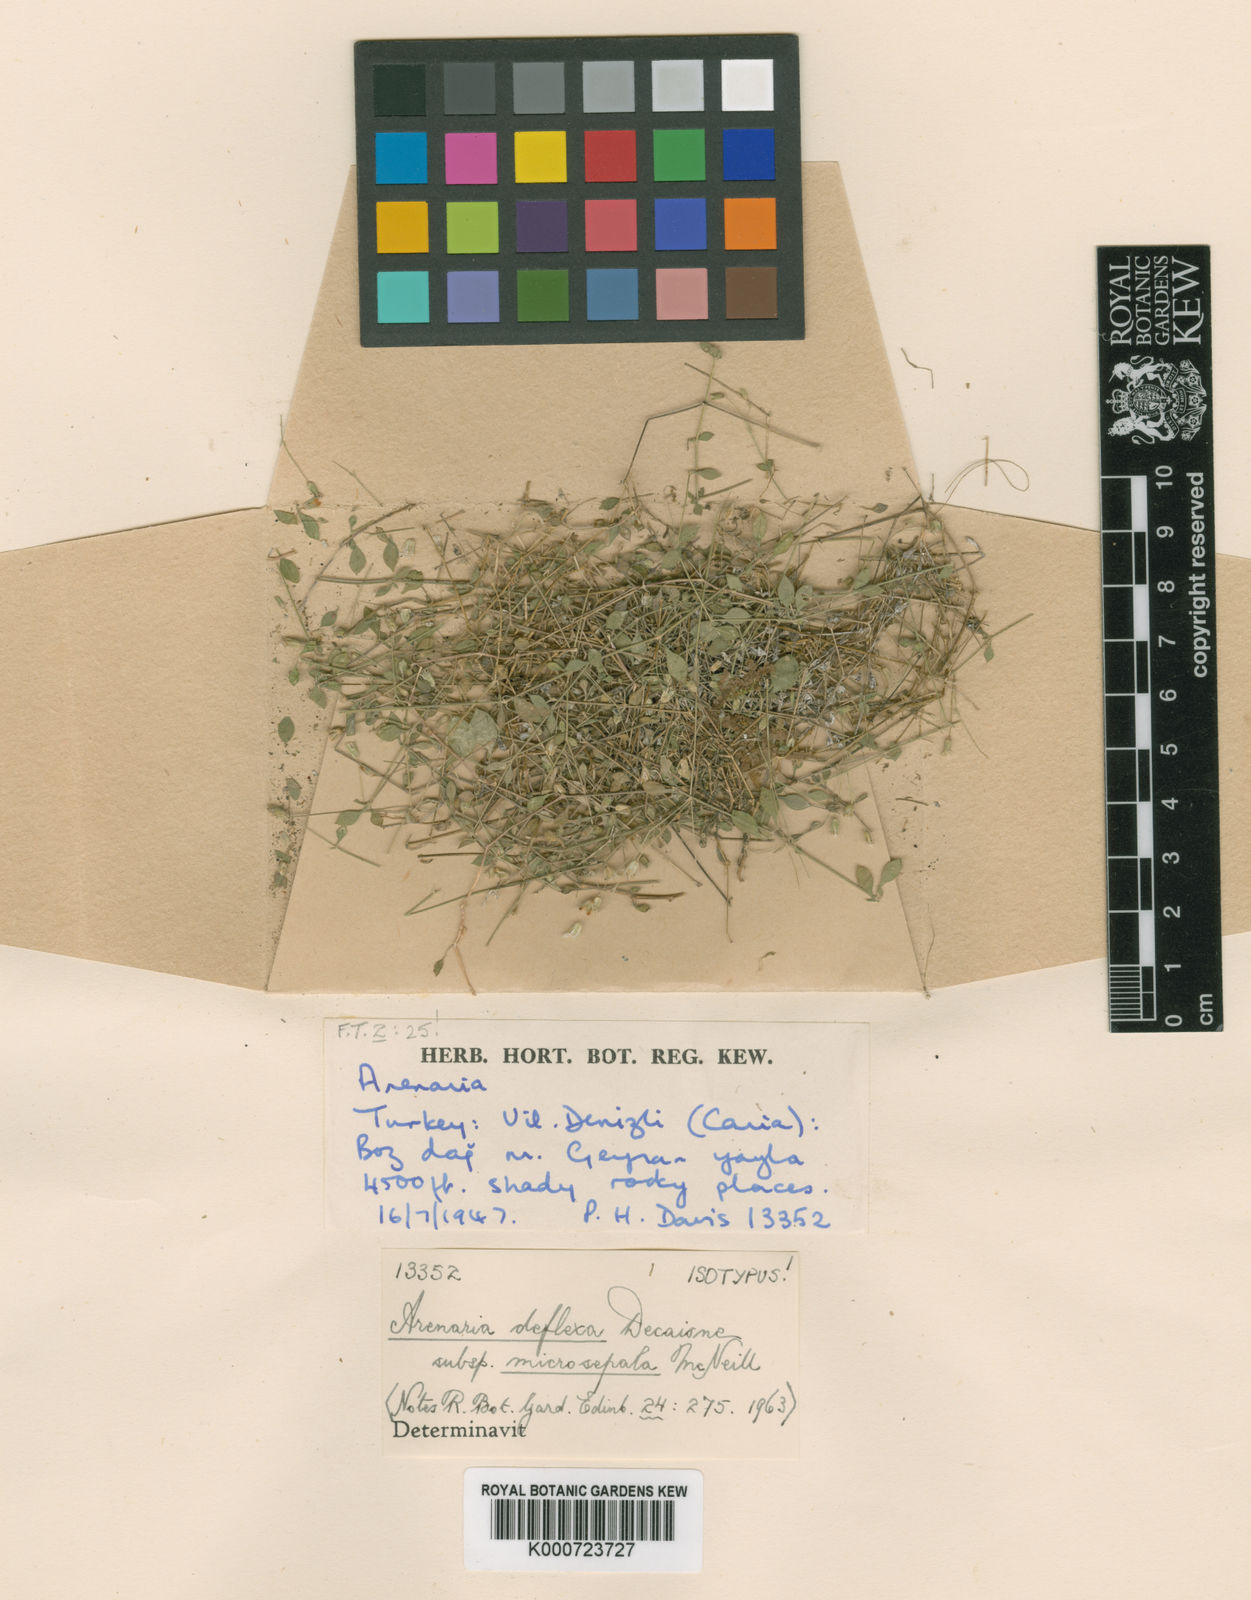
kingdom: Plantae
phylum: Tracheophyta
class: Magnoliopsida
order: Caryophyllales
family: Caryophyllaceae
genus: Arenaria
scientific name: Arenaria deflexa
